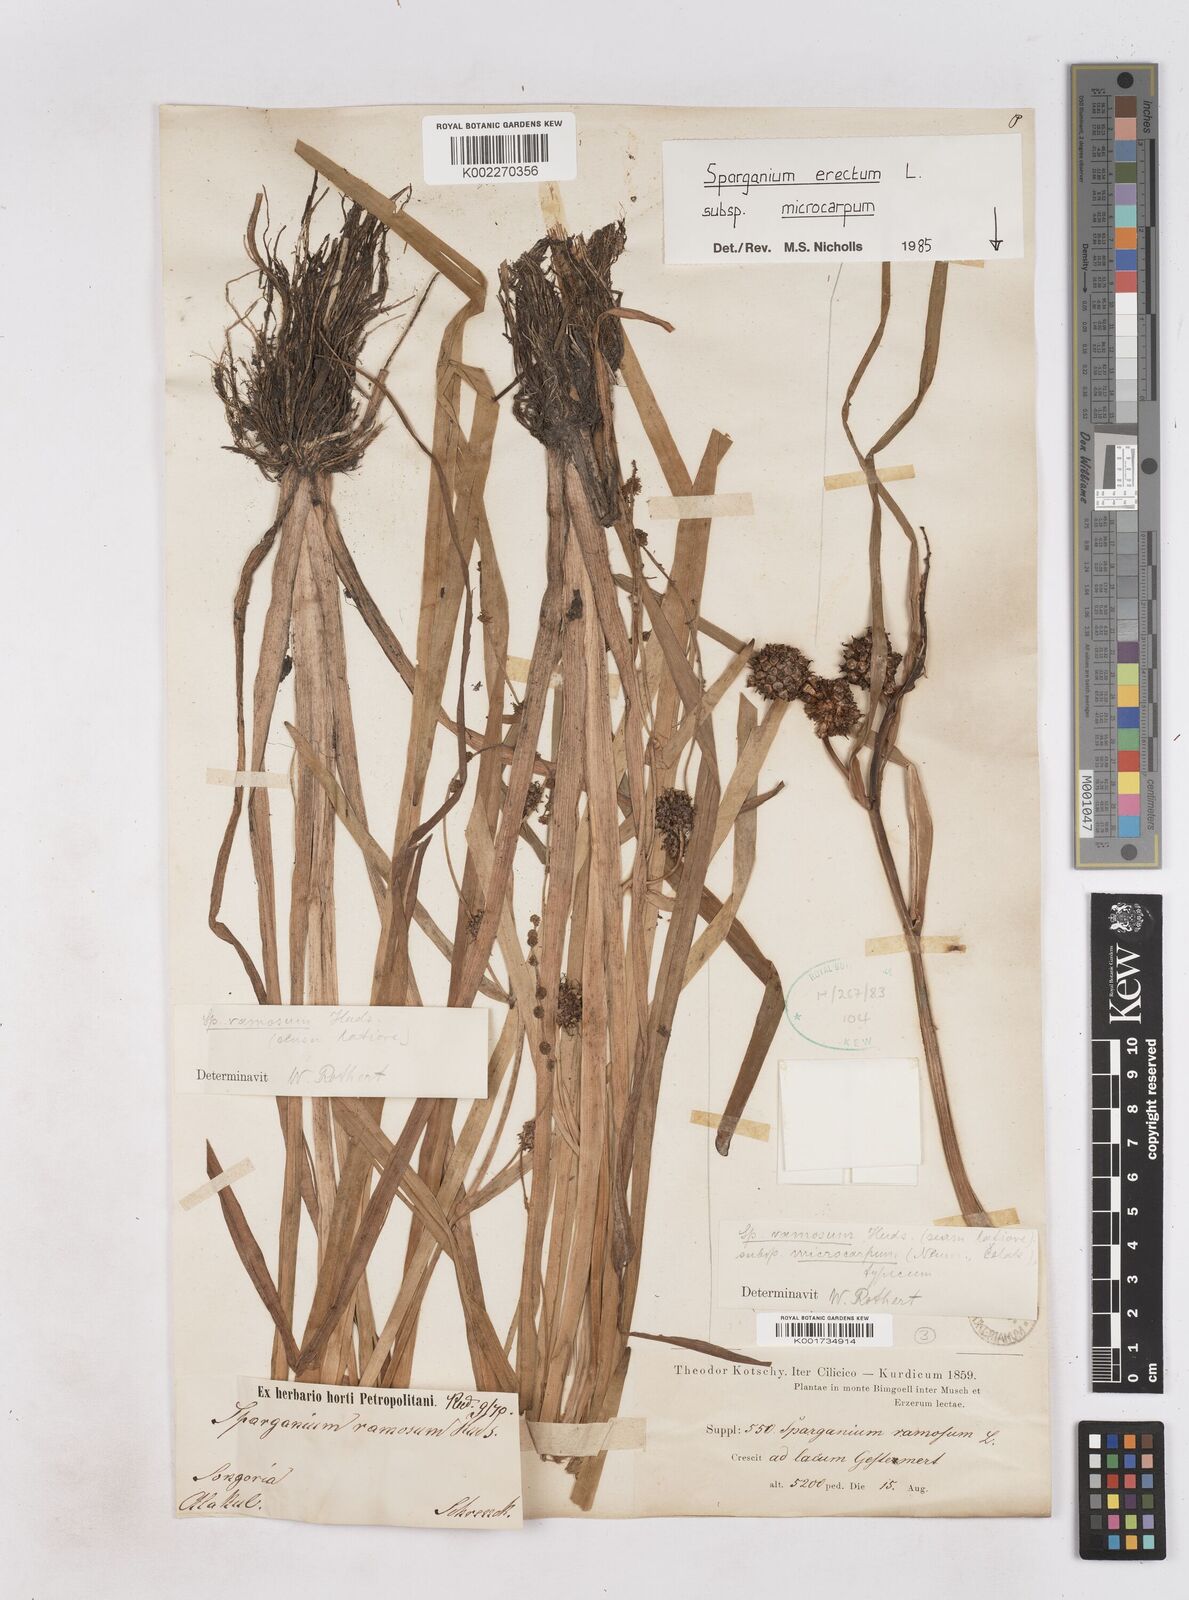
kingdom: Plantae
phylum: Tracheophyta
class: Liliopsida
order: Poales
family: Typhaceae
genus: Sparganium
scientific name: Sparganium eurycarpum
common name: Broad-fruited burreed
